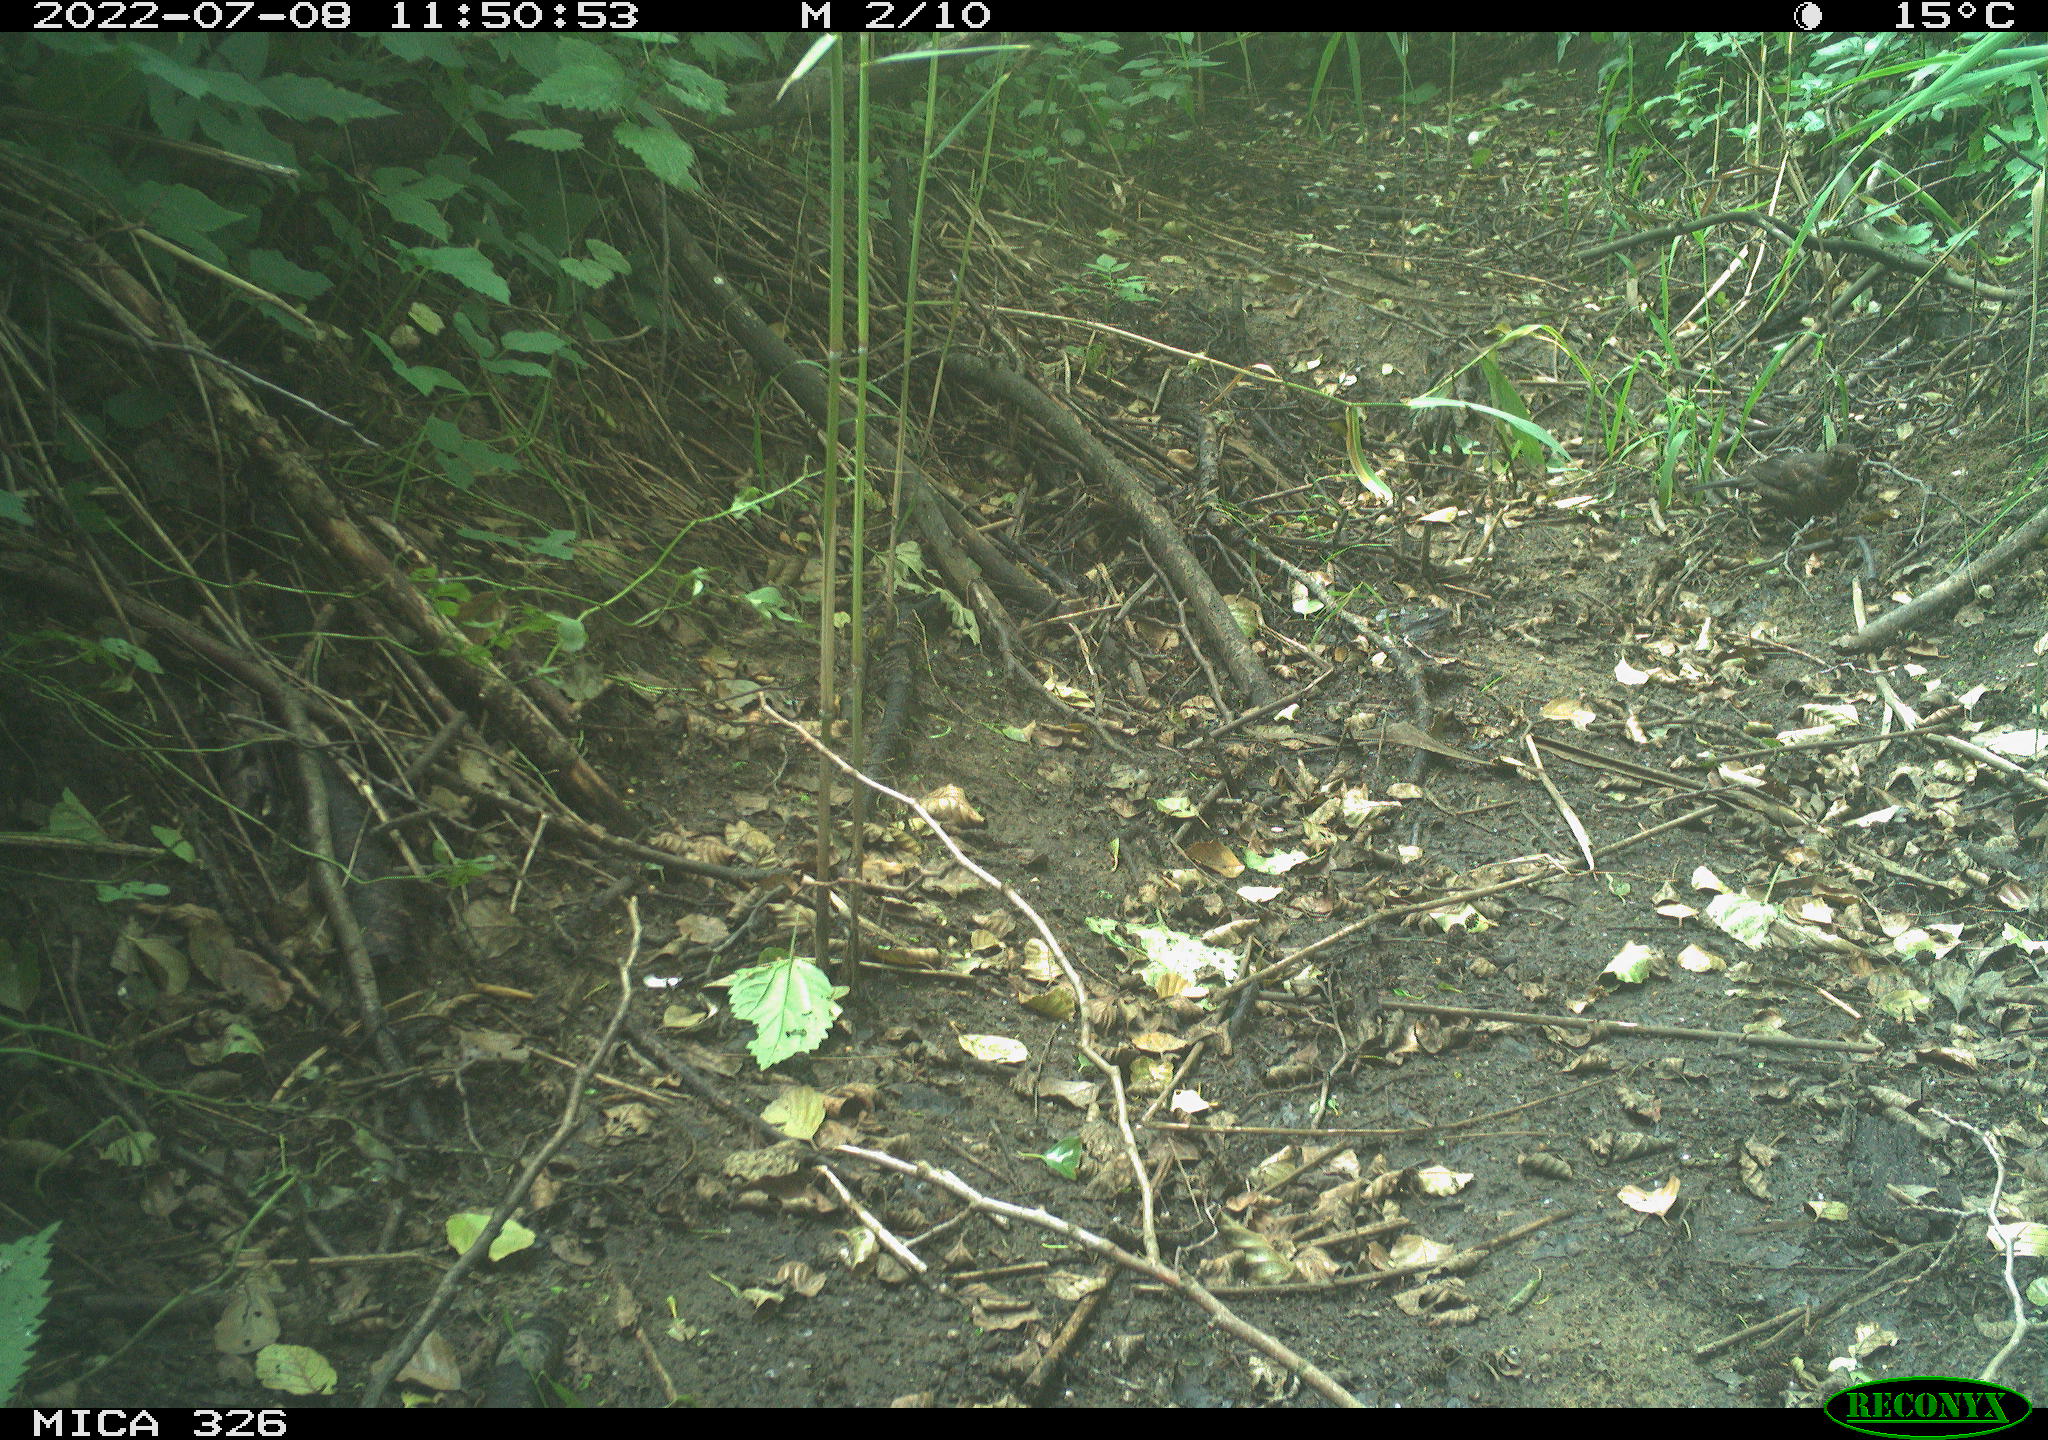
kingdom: Animalia
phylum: Chordata
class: Aves
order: Passeriformes
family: Turdidae
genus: Turdus
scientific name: Turdus merula
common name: Common blackbird
